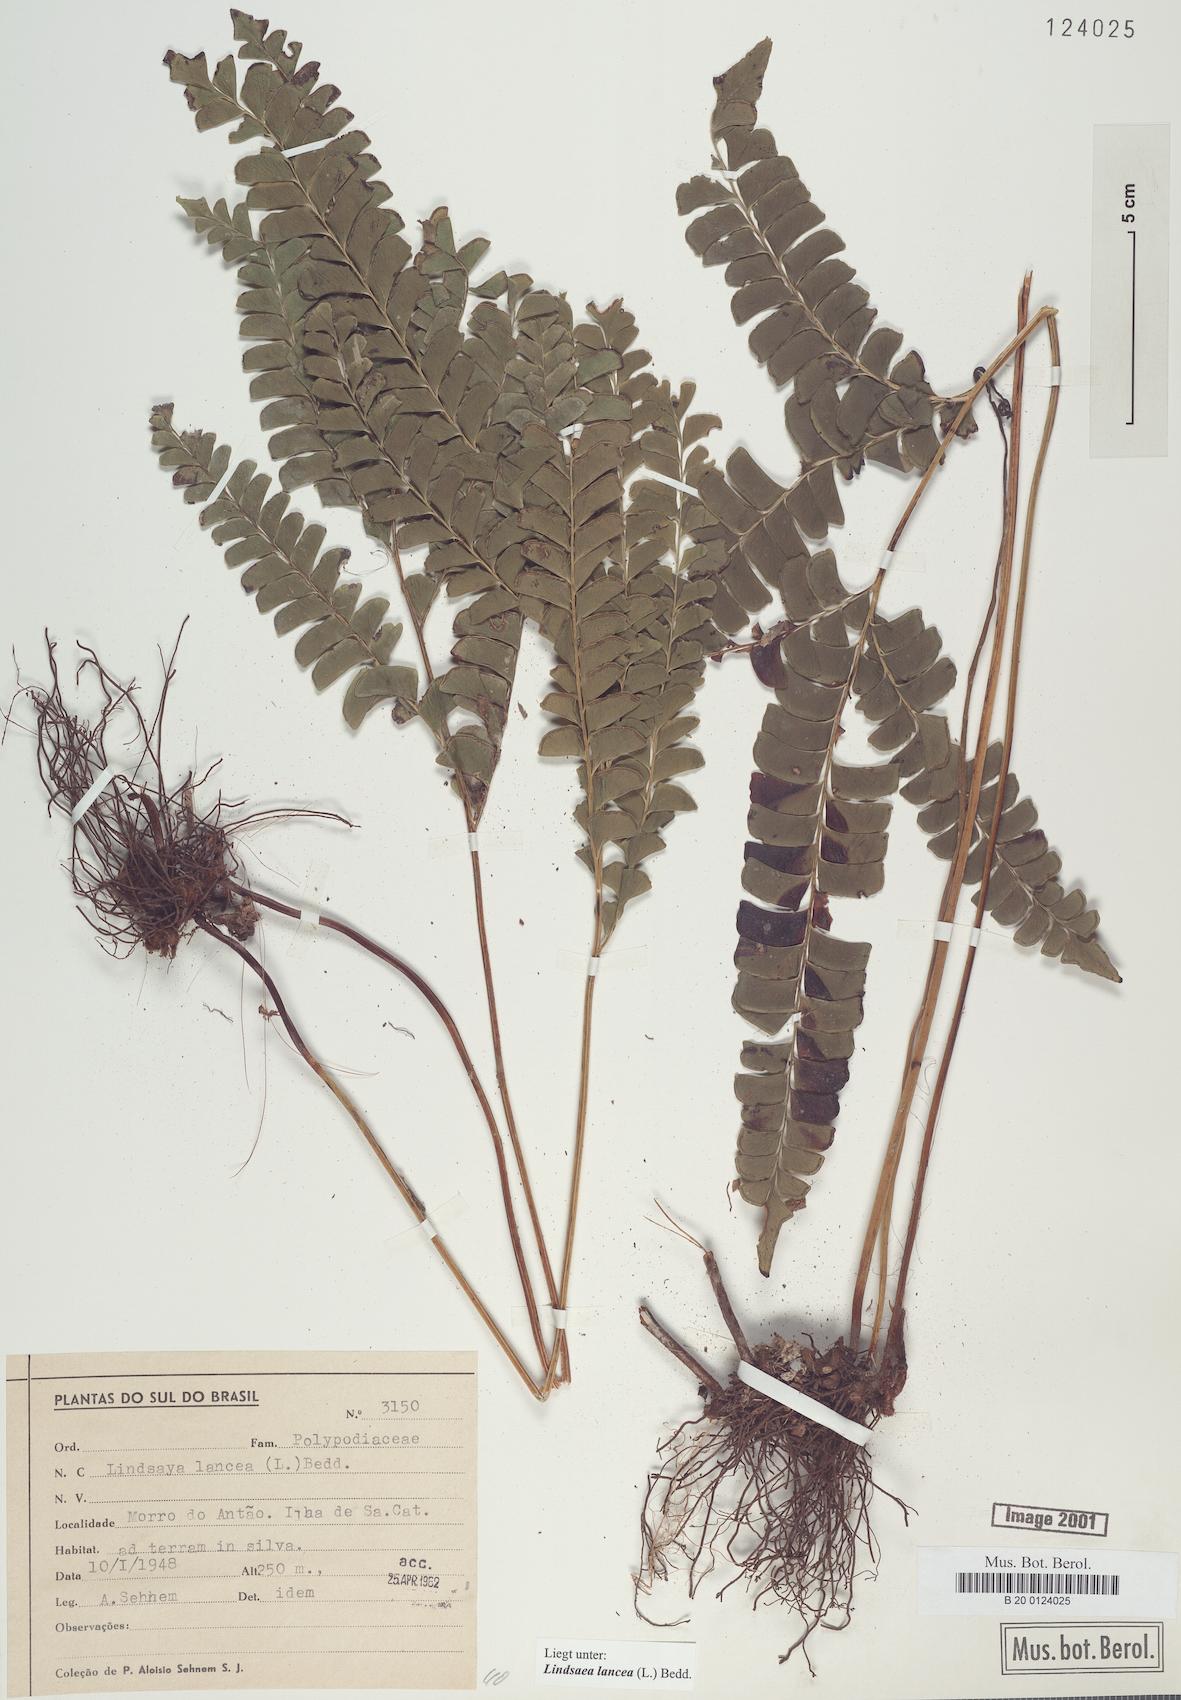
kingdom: Plantae
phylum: Tracheophyta
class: Polypodiopsida
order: Polypodiales
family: Lindsaeaceae
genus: Lindsaea
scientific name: Lindsaea lancea
